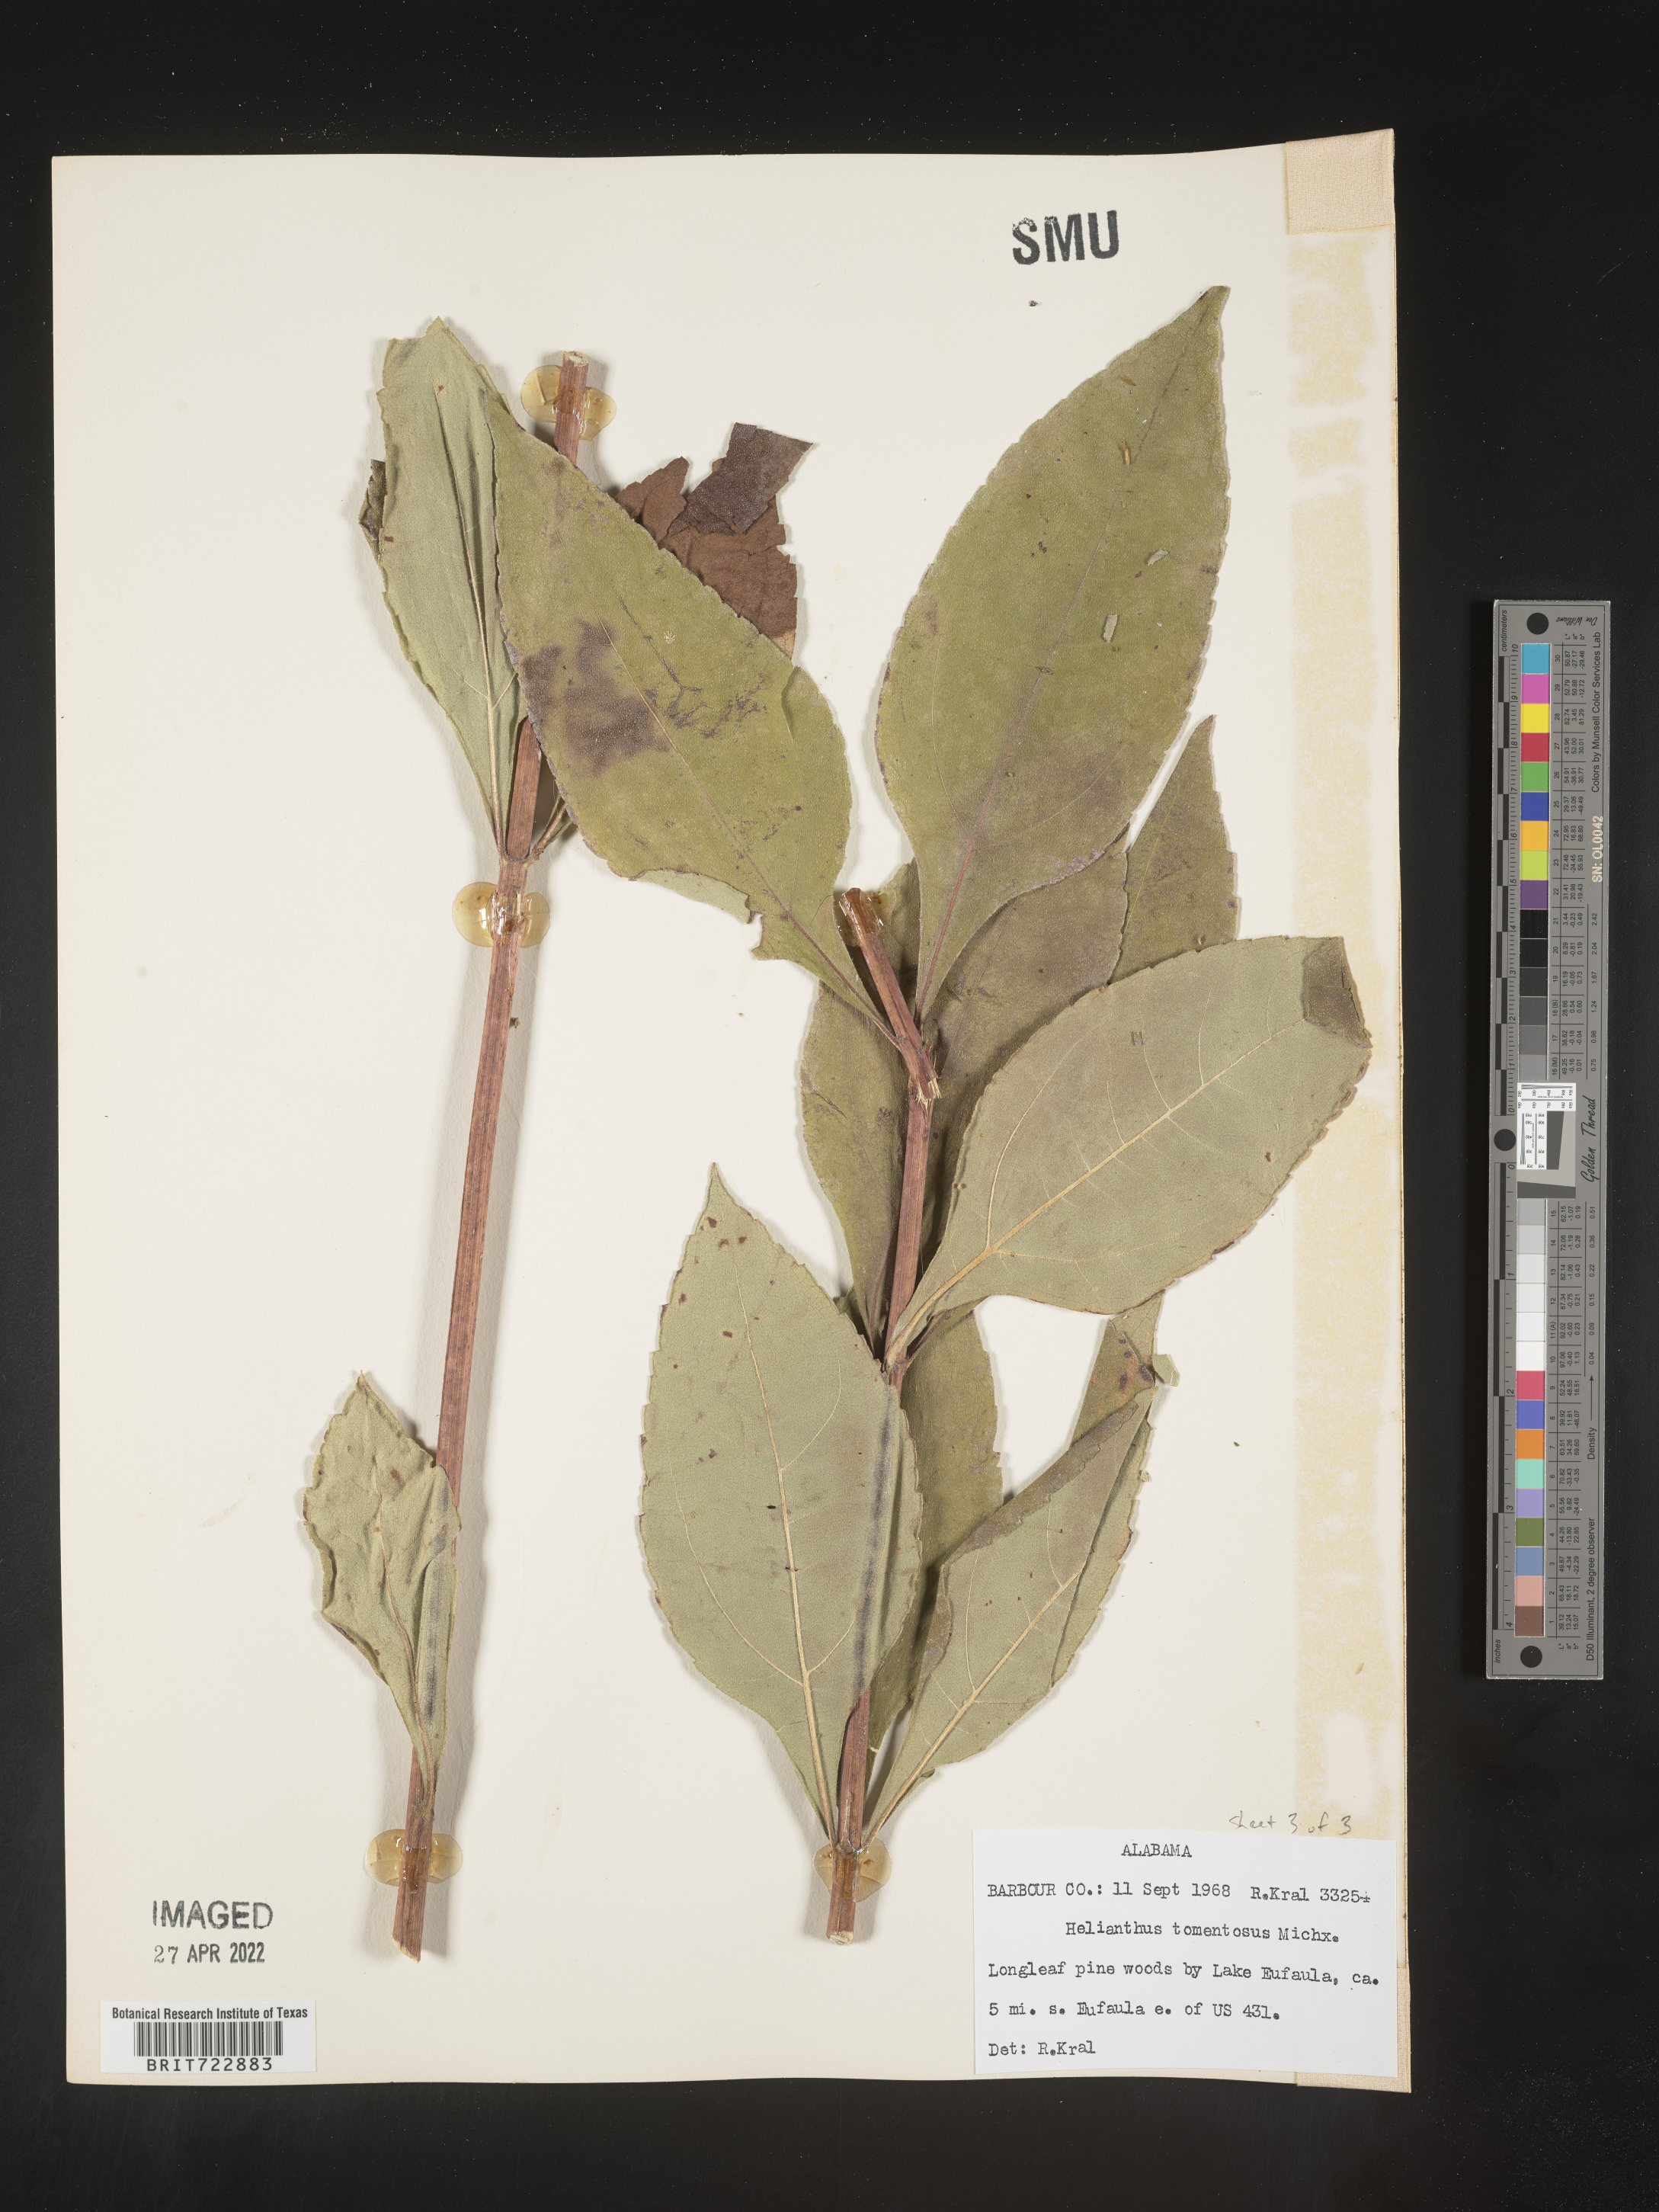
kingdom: Plantae
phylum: Tracheophyta
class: Magnoliopsida
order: Asterales
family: Asteraceae
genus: Helianthus
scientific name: Helianthus tuberosus
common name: Jerusalem artichoke
